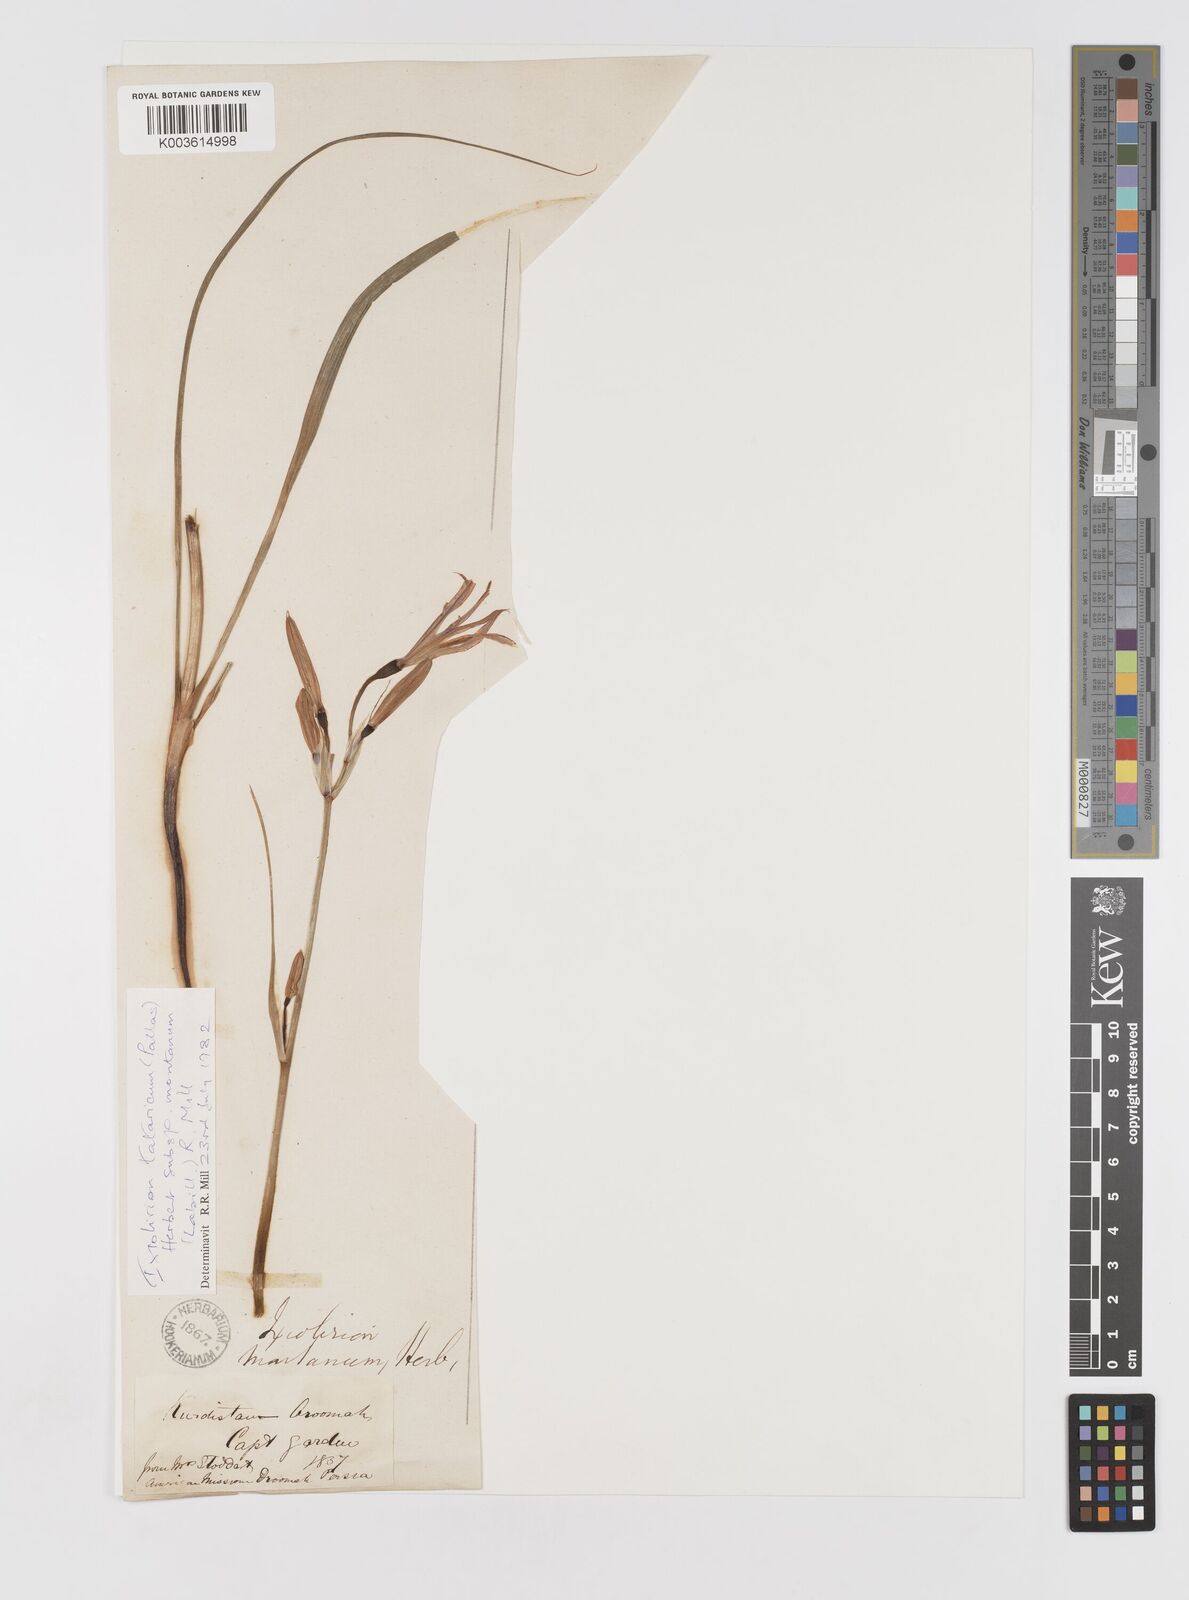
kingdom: Plantae
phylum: Tracheophyta
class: Liliopsida
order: Asparagales
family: Ixioliriaceae
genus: Ixiolirion
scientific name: Ixiolirion tataricum
